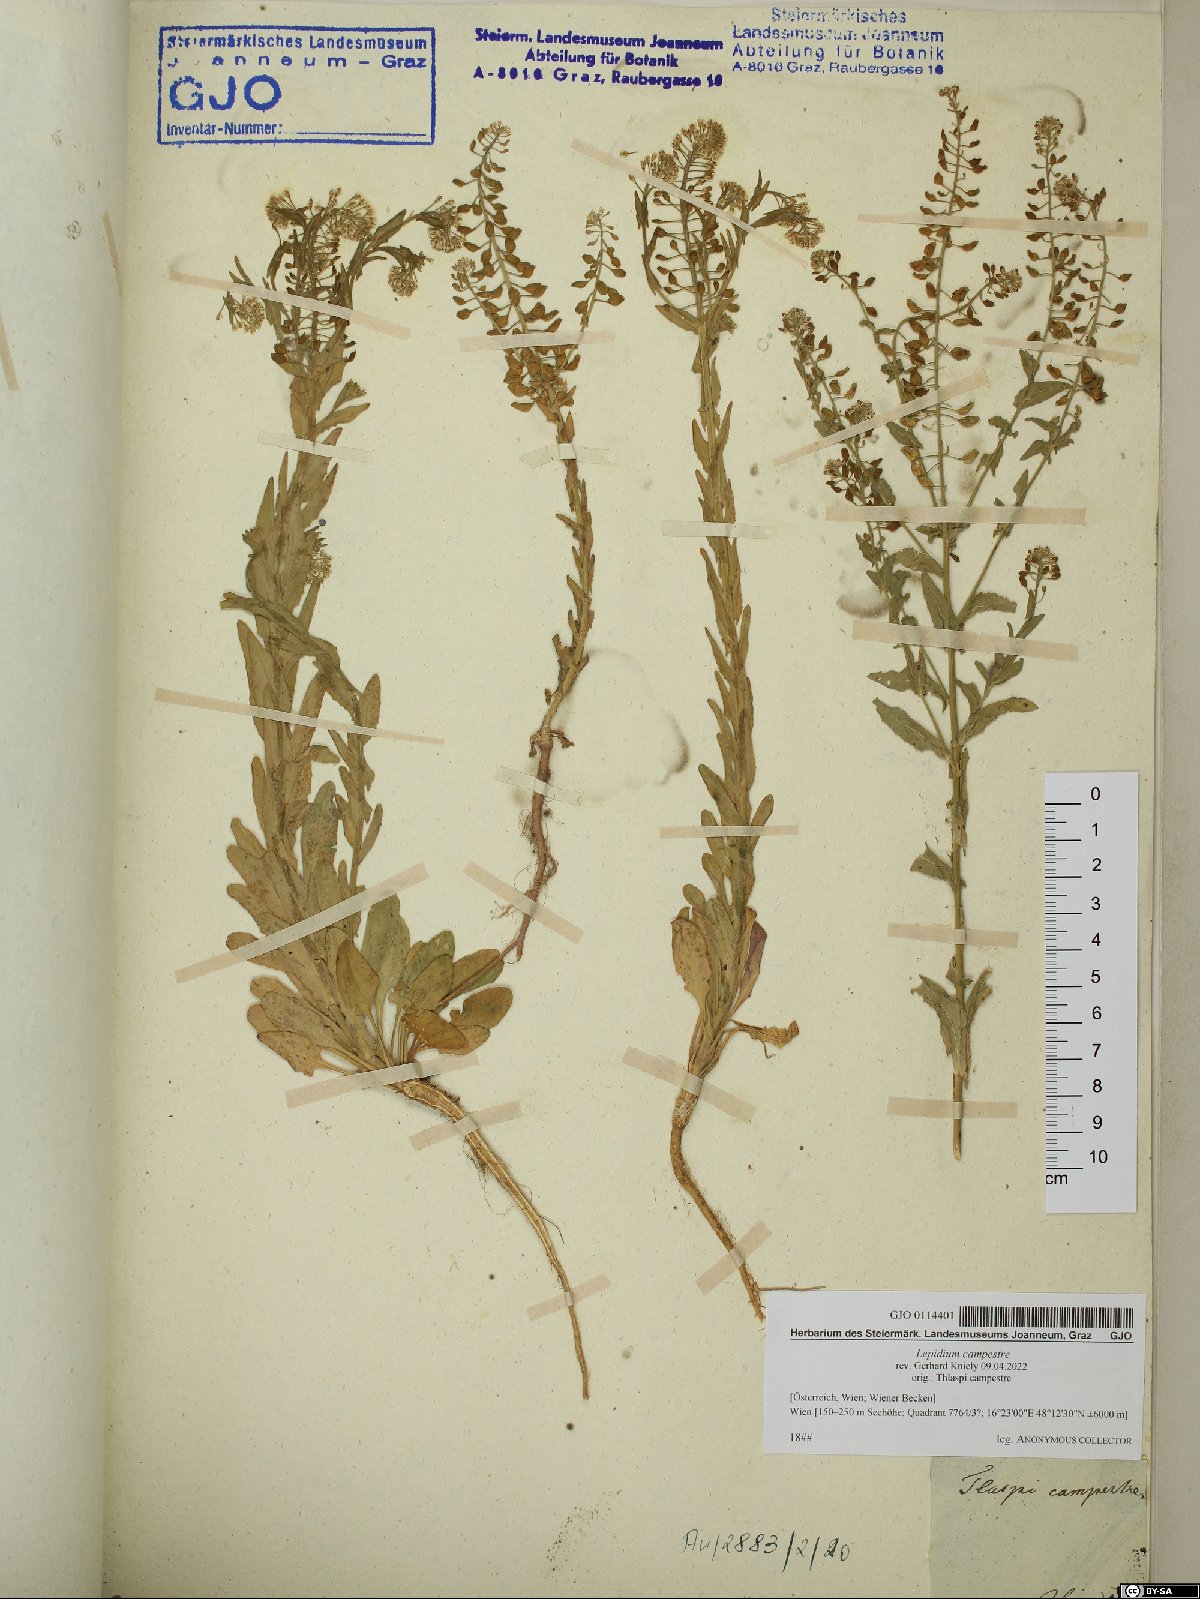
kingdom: Plantae
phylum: Tracheophyta
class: Magnoliopsida
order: Brassicales
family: Brassicaceae
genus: Lepidium
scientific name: Lepidium campestre
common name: Field pepperwort
